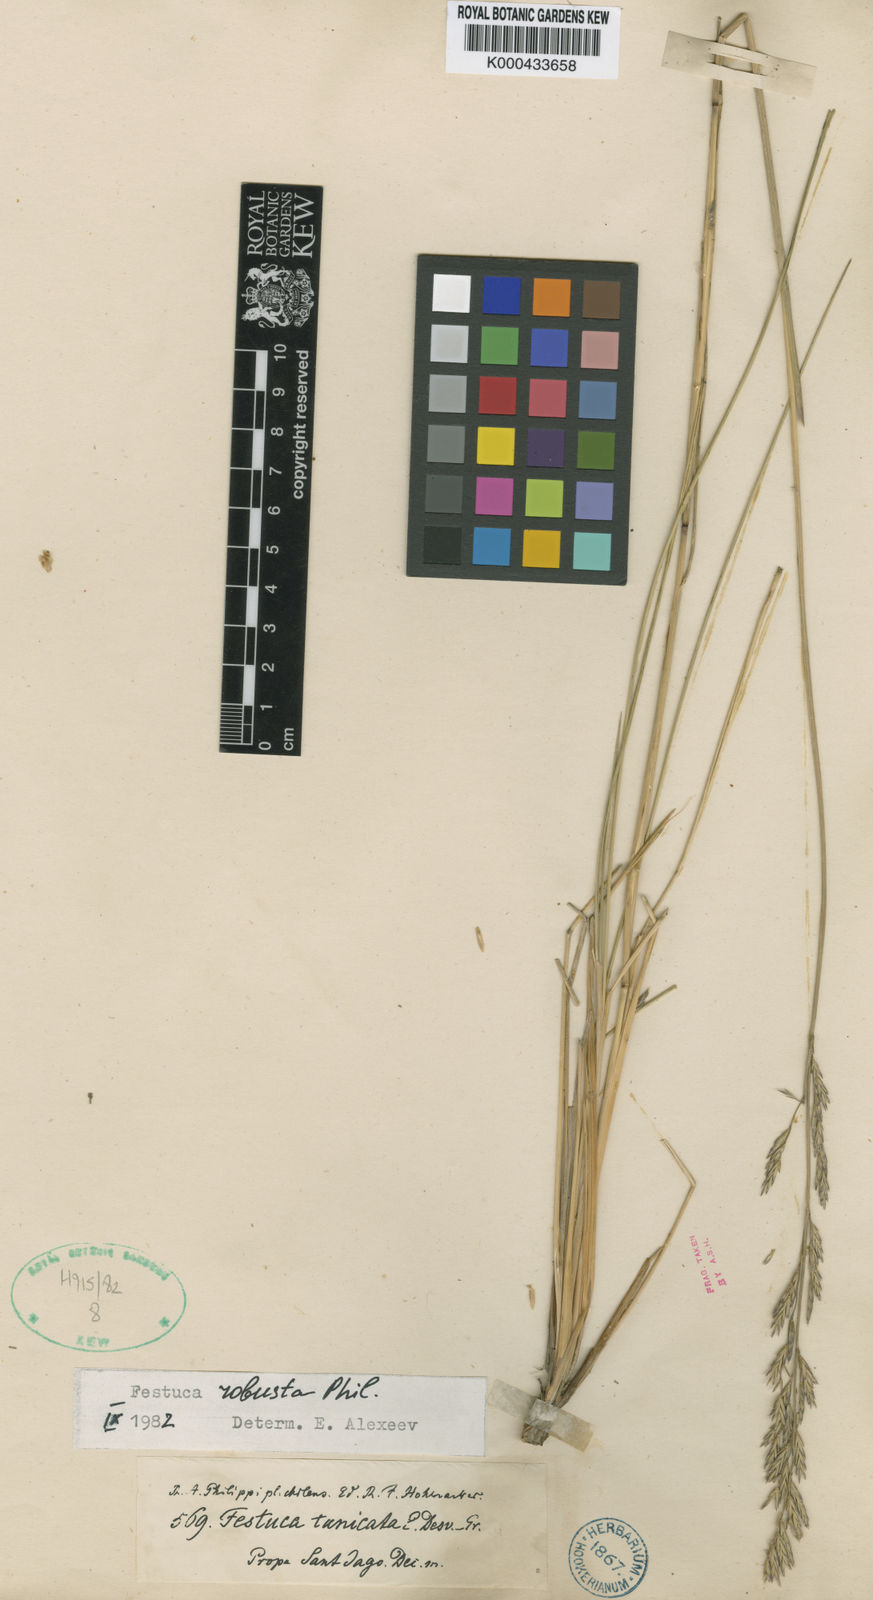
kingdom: Plantae
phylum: Tracheophyta
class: Liliopsida
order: Poales
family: Poaceae
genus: Festuca
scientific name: Festuca acanthophylla
